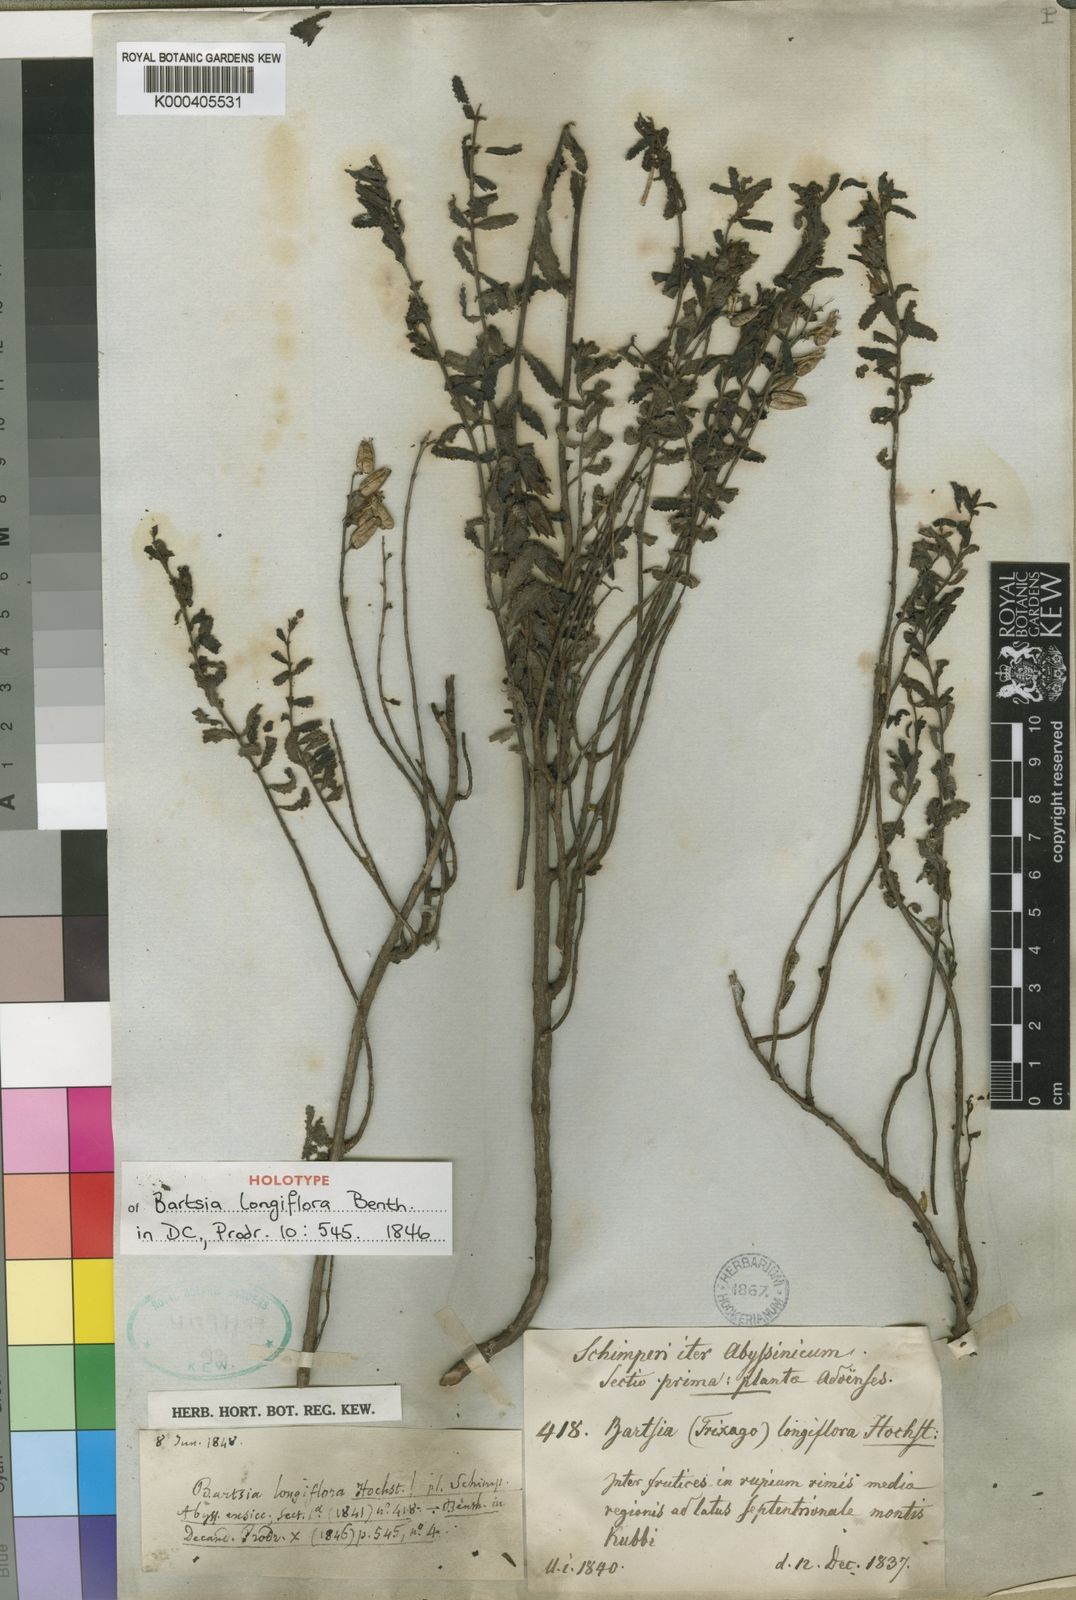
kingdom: Plantae
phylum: Tracheophyta
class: Magnoliopsida
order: Lamiales
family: Orobanchaceae
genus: Hedbergia
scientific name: Hedbergia longiflora
